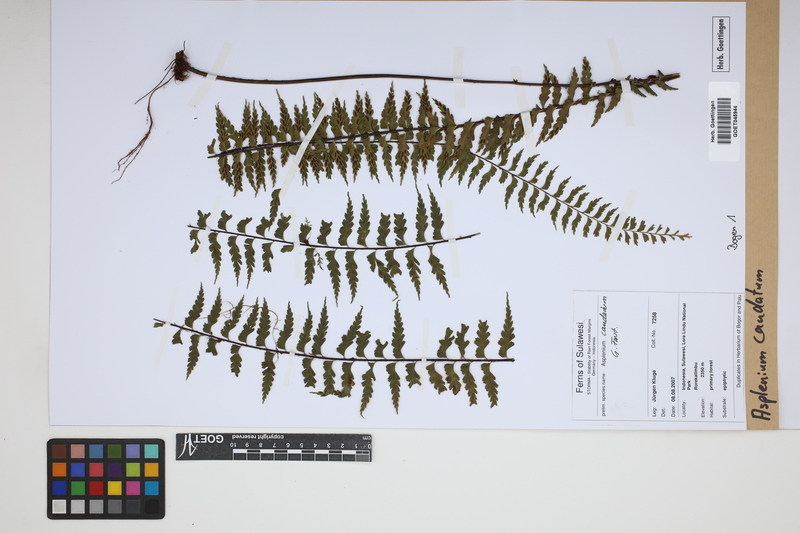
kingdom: Plantae
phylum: Tracheophyta
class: Polypodiopsida
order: Polypodiales
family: Aspleniaceae
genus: Asplenium
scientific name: Asplenium caudatum
